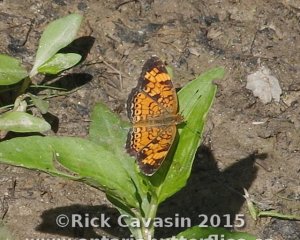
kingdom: Animalia
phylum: Arthropoda
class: Insecta
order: Lepidoptera
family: Nymphalidae
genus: Phyciodes
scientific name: Phyciodes tharos
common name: Pearl Crescent
